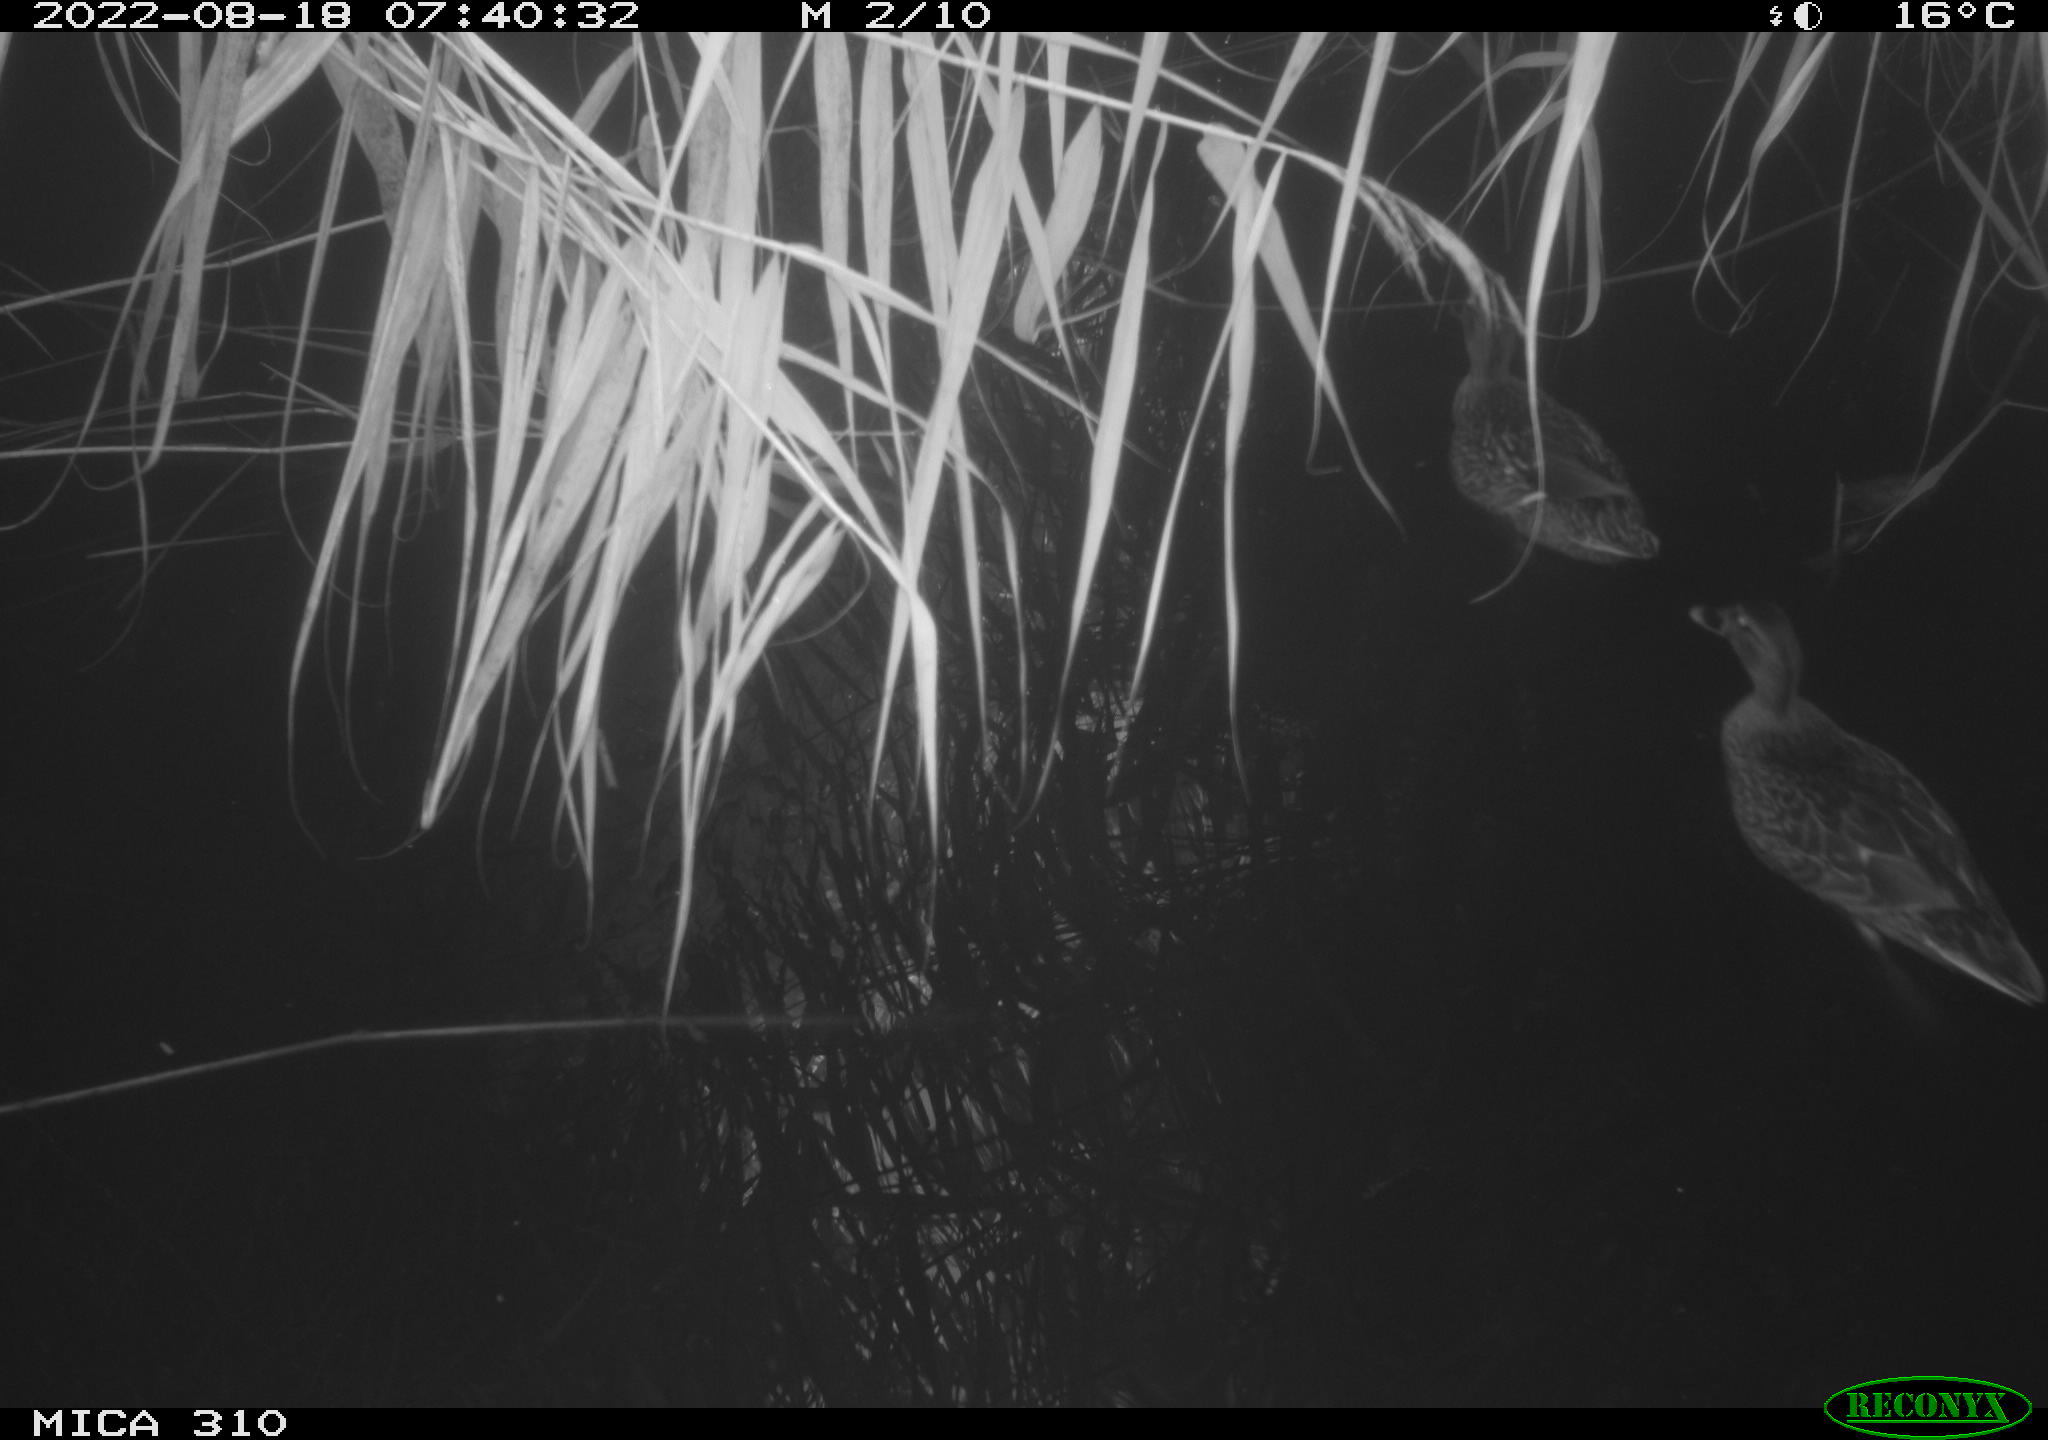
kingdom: Animalia
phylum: Chordata
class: Aves
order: Anseriformes
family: Anatidae
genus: Anas
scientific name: Anas platyrhynchos
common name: Mallard
